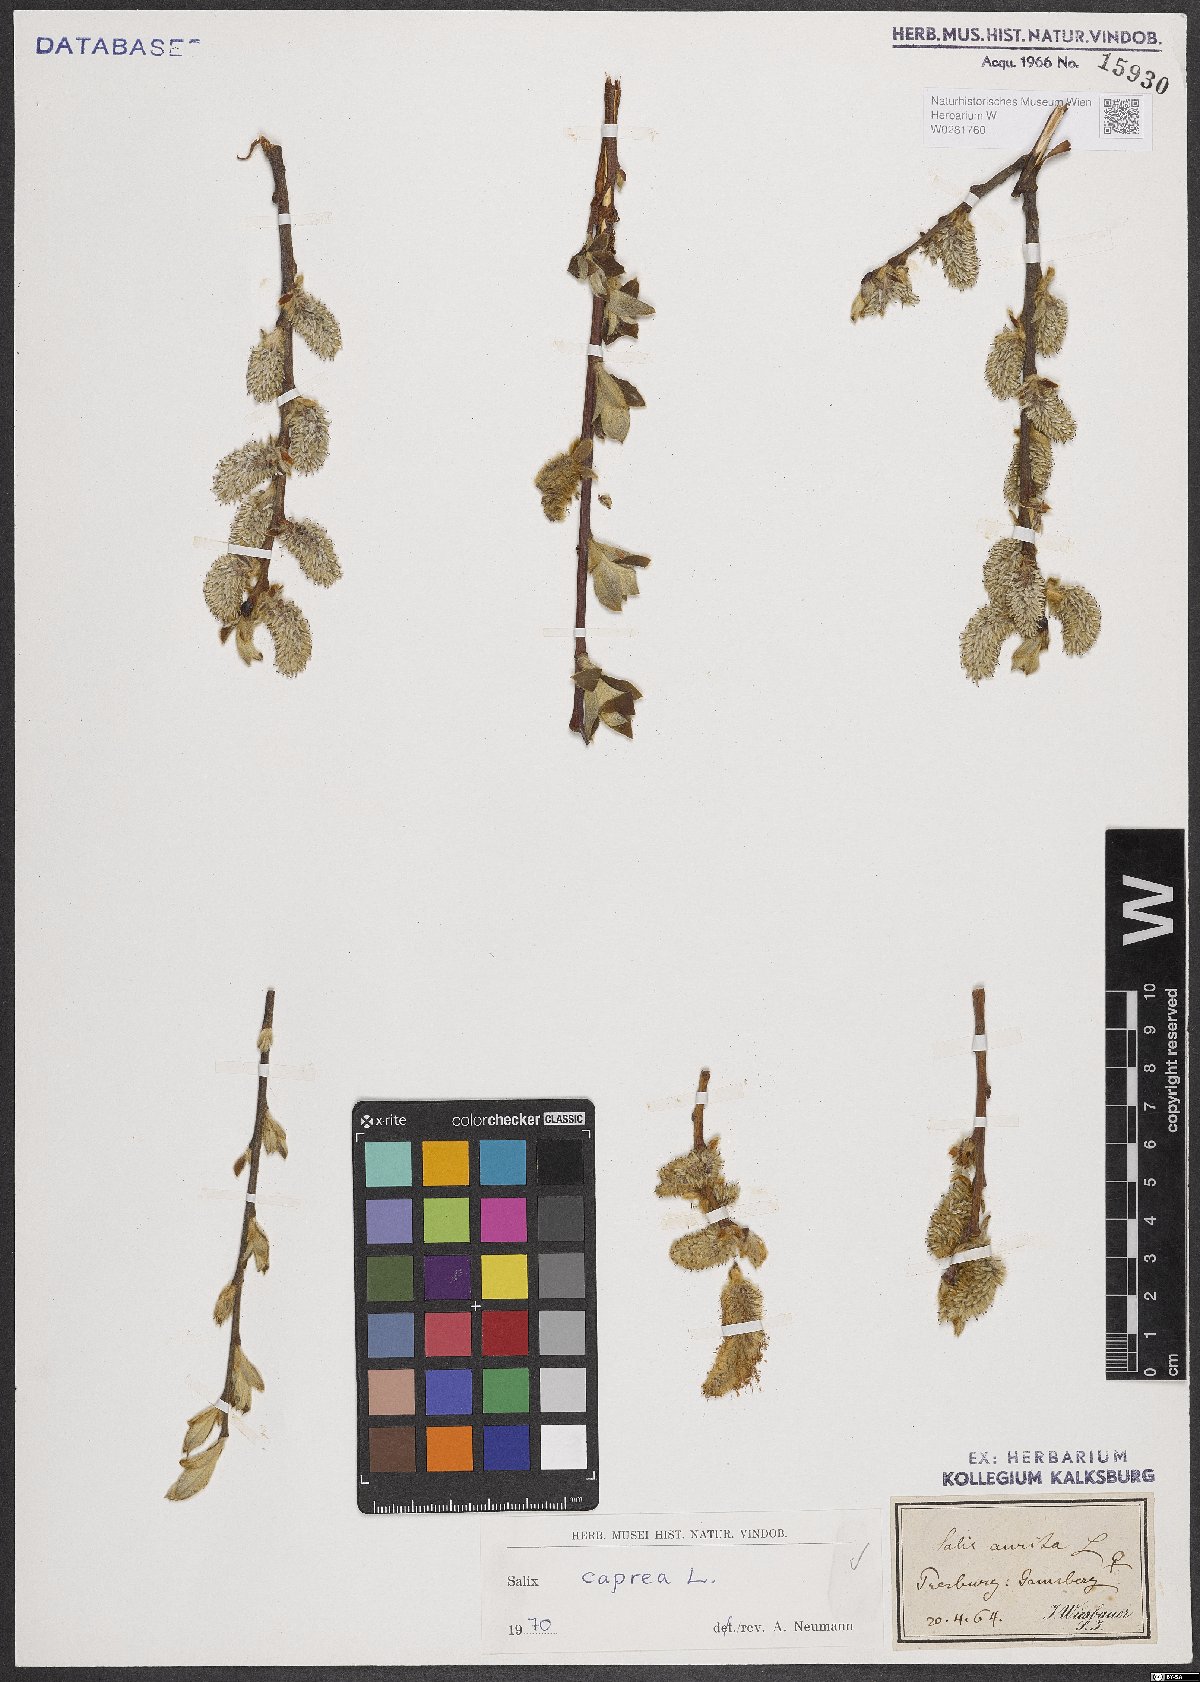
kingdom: Plantae
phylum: Tracheophyta
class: Magnoliopsida
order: Malpighiales
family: Salicaceae
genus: Salix
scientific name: Salix caprea
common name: Goat willow
